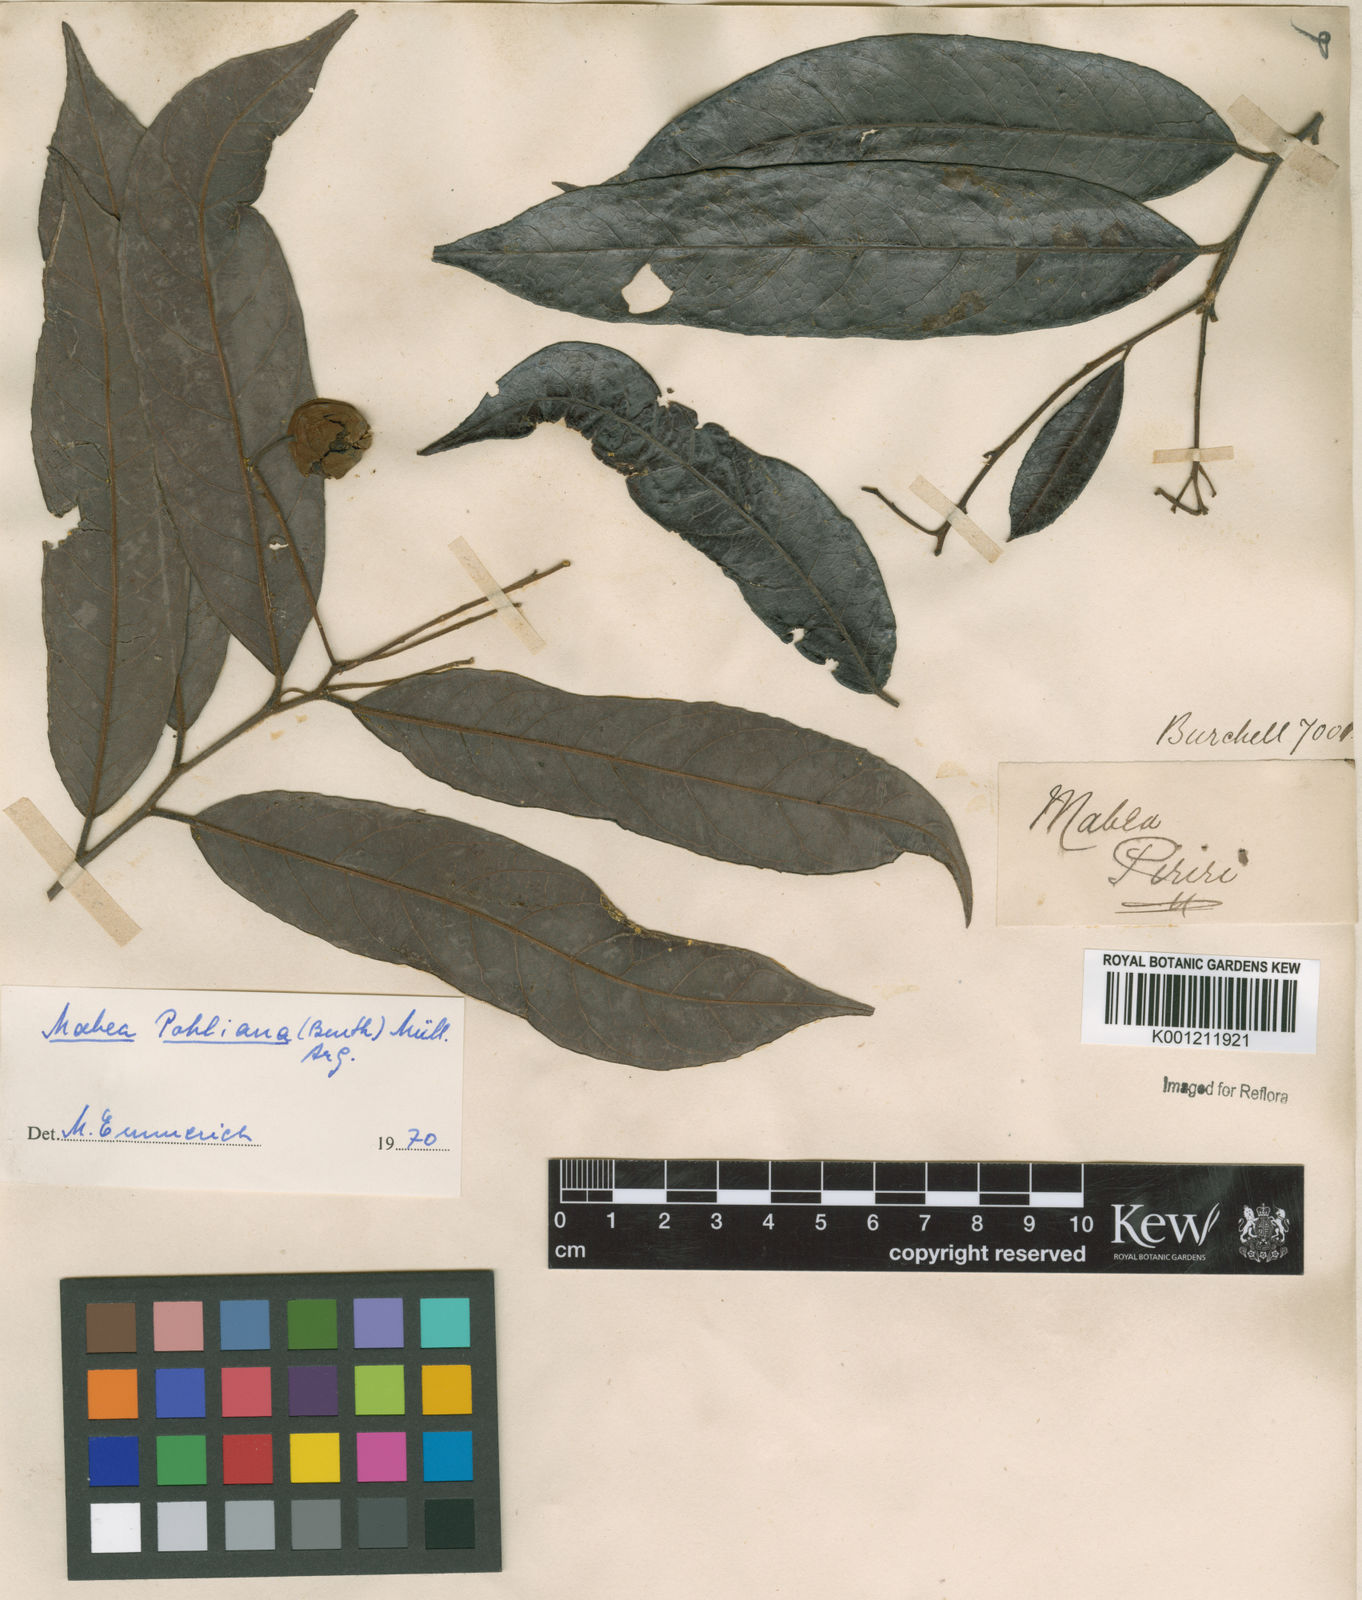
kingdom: Plantae
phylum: Tracheophyta
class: Magnoliopsida
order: Malpighiales
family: Euphorbiaceae
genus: Mabea
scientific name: Mabea
